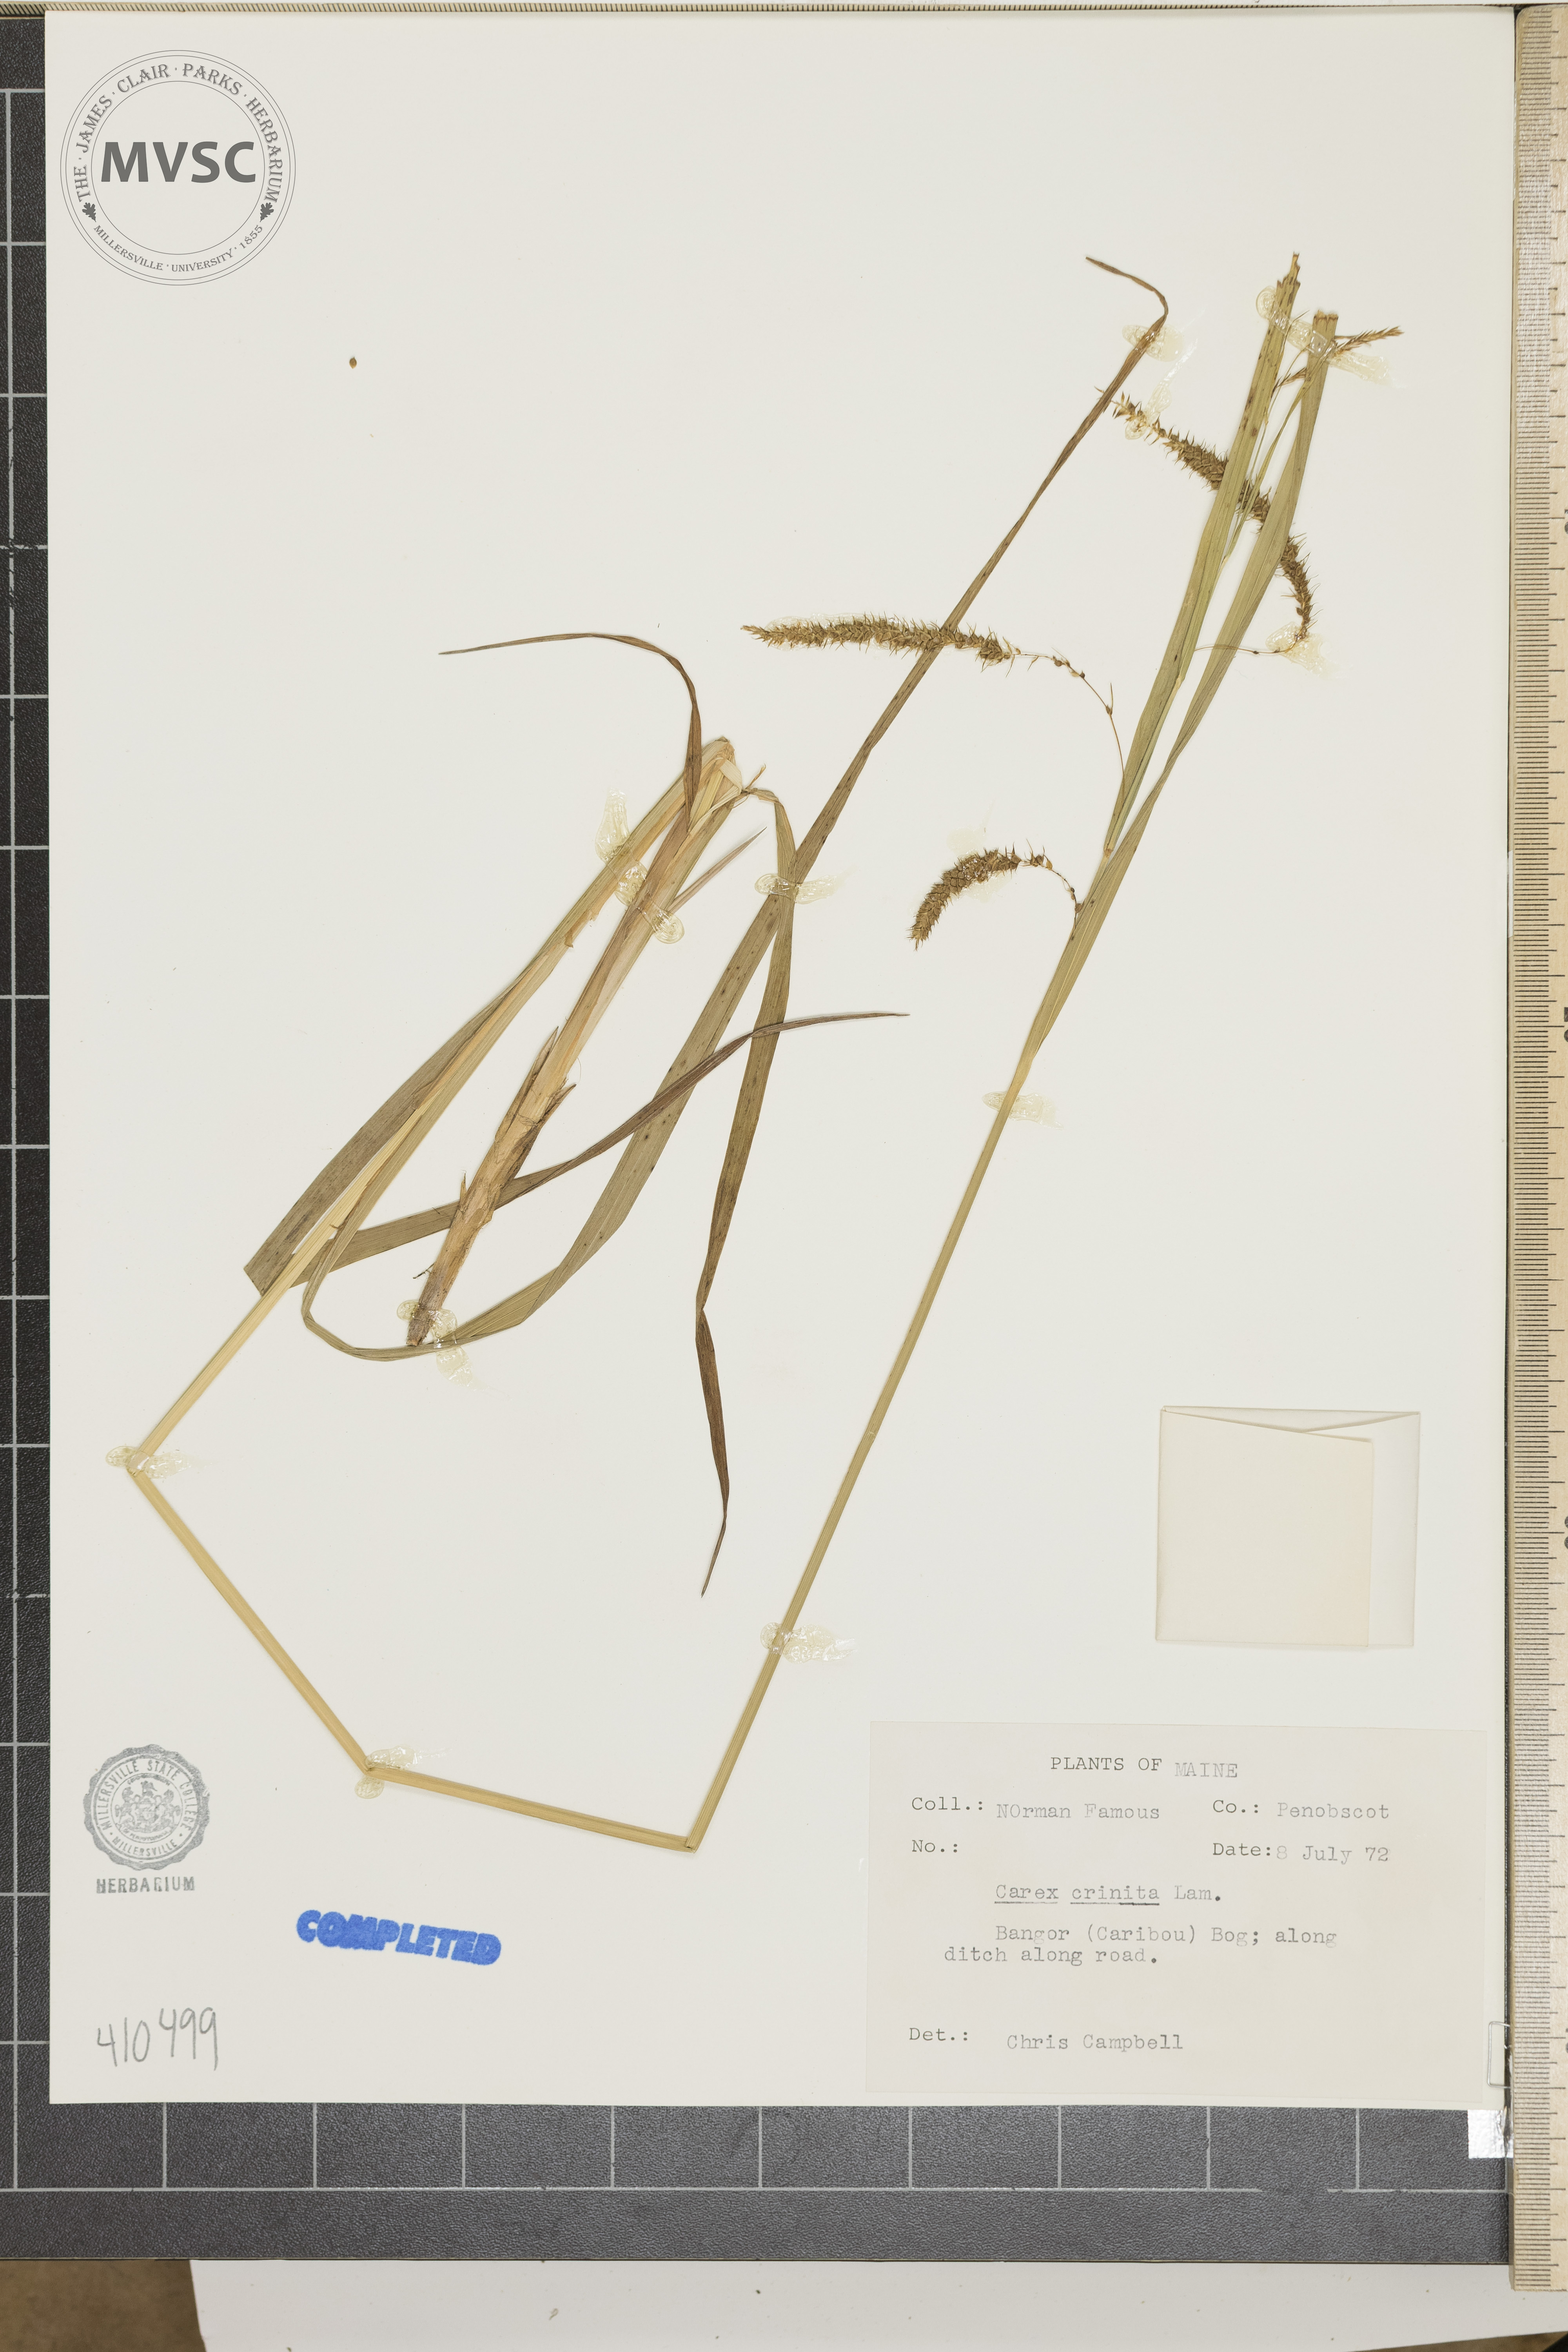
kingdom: Plantae
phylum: Tracheophyta
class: Liliopsida
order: Poales
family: Cyperaceae
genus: Carex
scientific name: Carex crinita
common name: Fringed sedge
